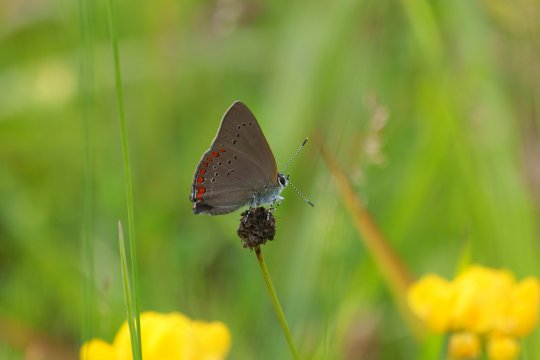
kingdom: Animalia
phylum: Arthropoda
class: Insecta
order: Lepidoptera
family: Lycaenidae
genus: Harkenclenus
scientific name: Harkenclenus titus
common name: Coral Hairstreak
